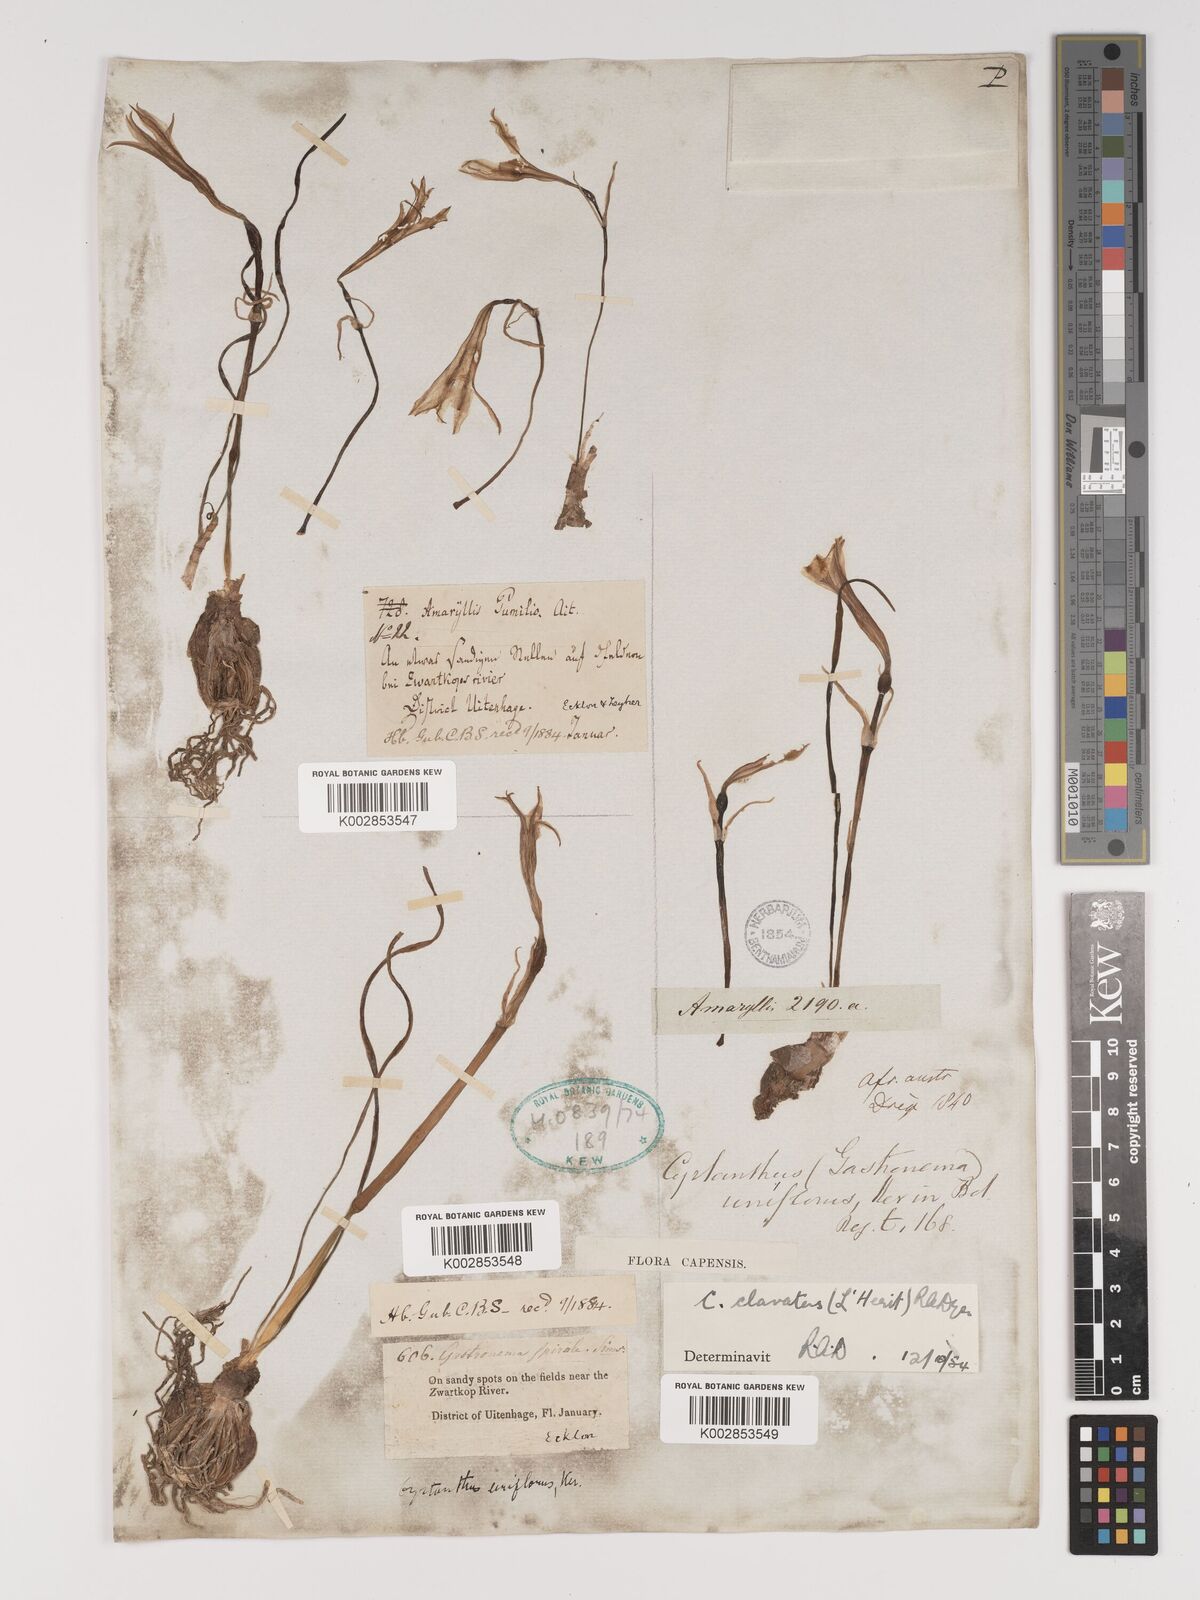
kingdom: Plantae
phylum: Tracheophyta
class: Liliopsida
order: Asparagales
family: Amaryllidaceae
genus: Cyrtanthus
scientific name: Cyrtanthus clavatus
